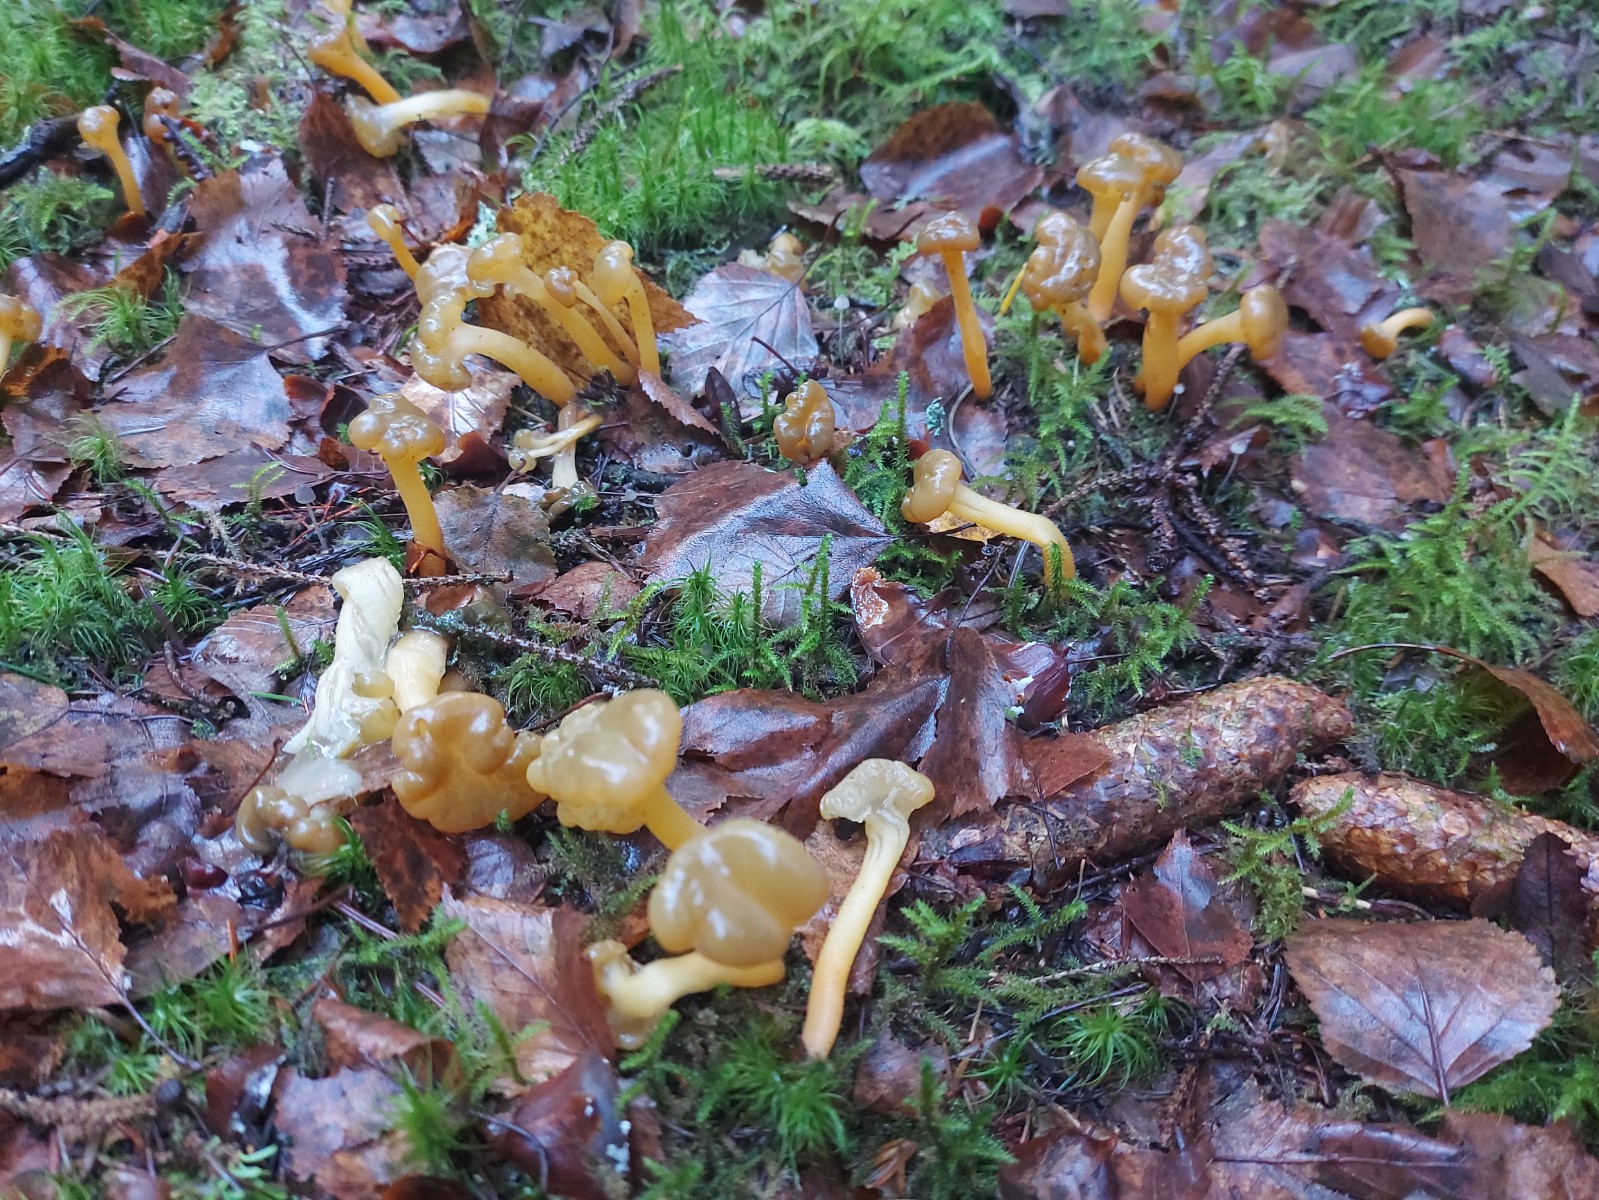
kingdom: Fungi
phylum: Ascomycota
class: Leotiomycetes
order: Leotiales
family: Leotiaceae
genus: Leotia
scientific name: Leotia lubrica
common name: ravsvamp
